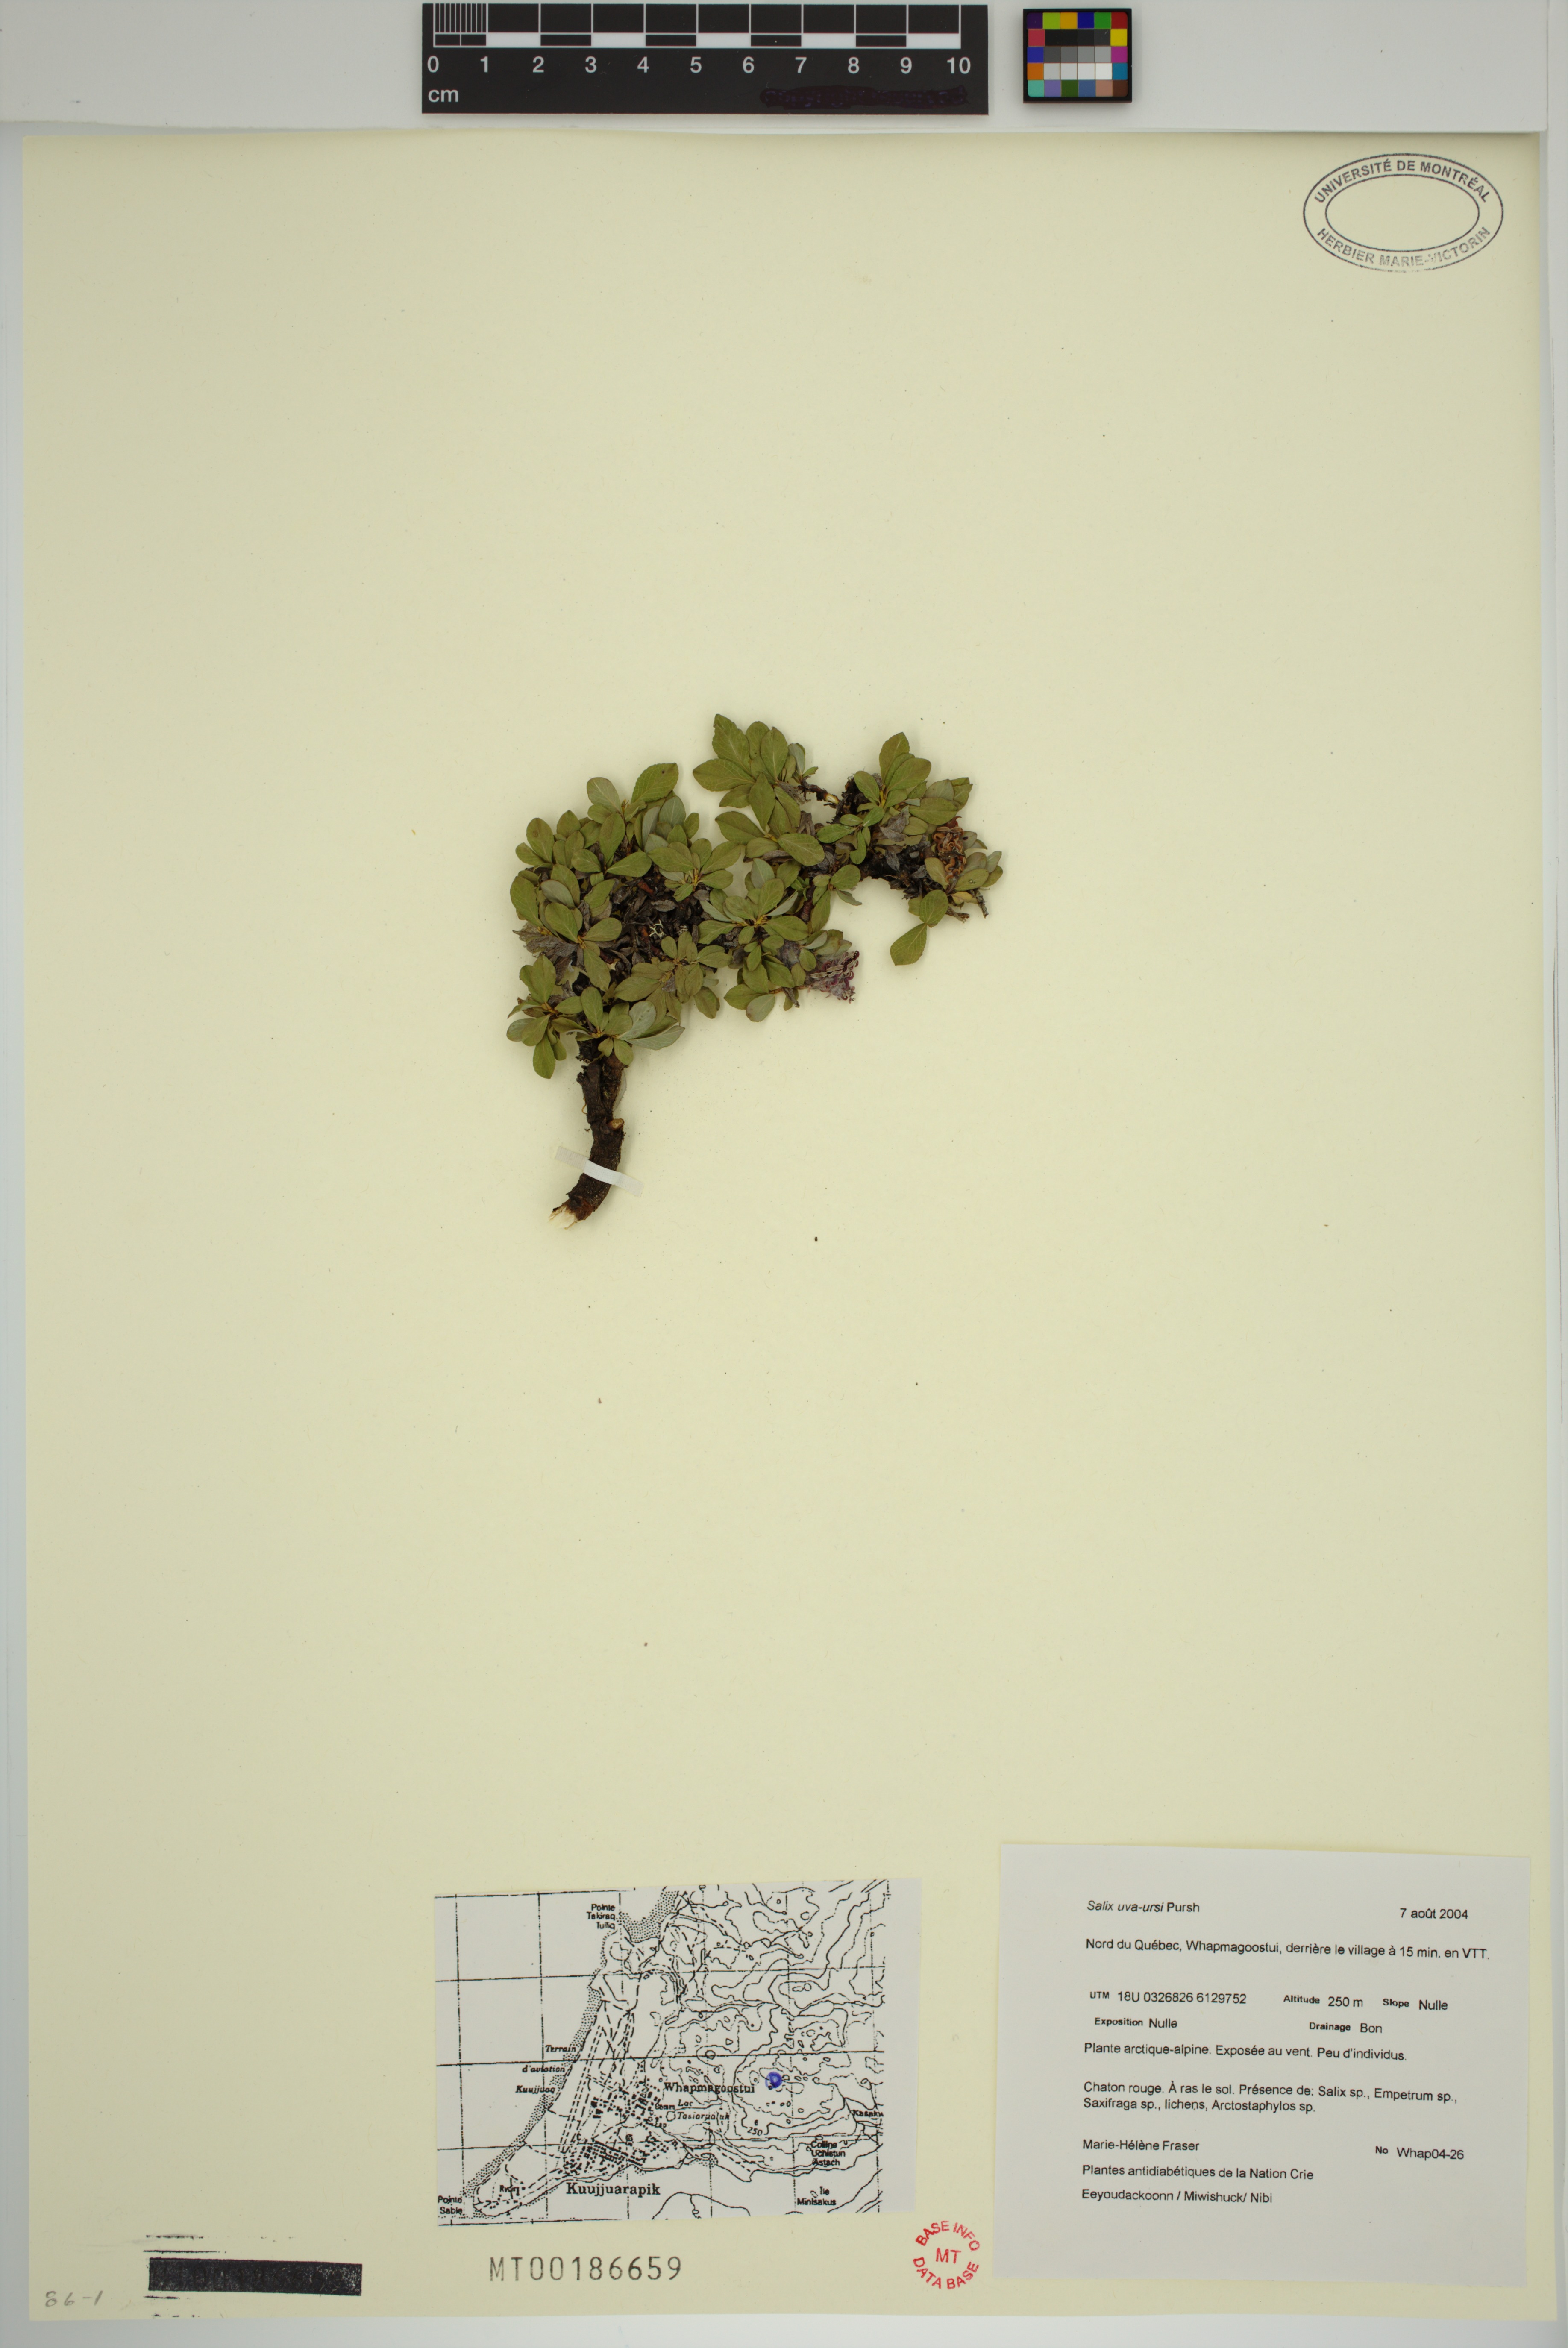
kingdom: Plantae
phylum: Tracheophyta
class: Magnoliopsida
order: Malpighiales
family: Salicaceae
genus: Salix
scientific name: Salix uva-ursi
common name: Bearberry willow
